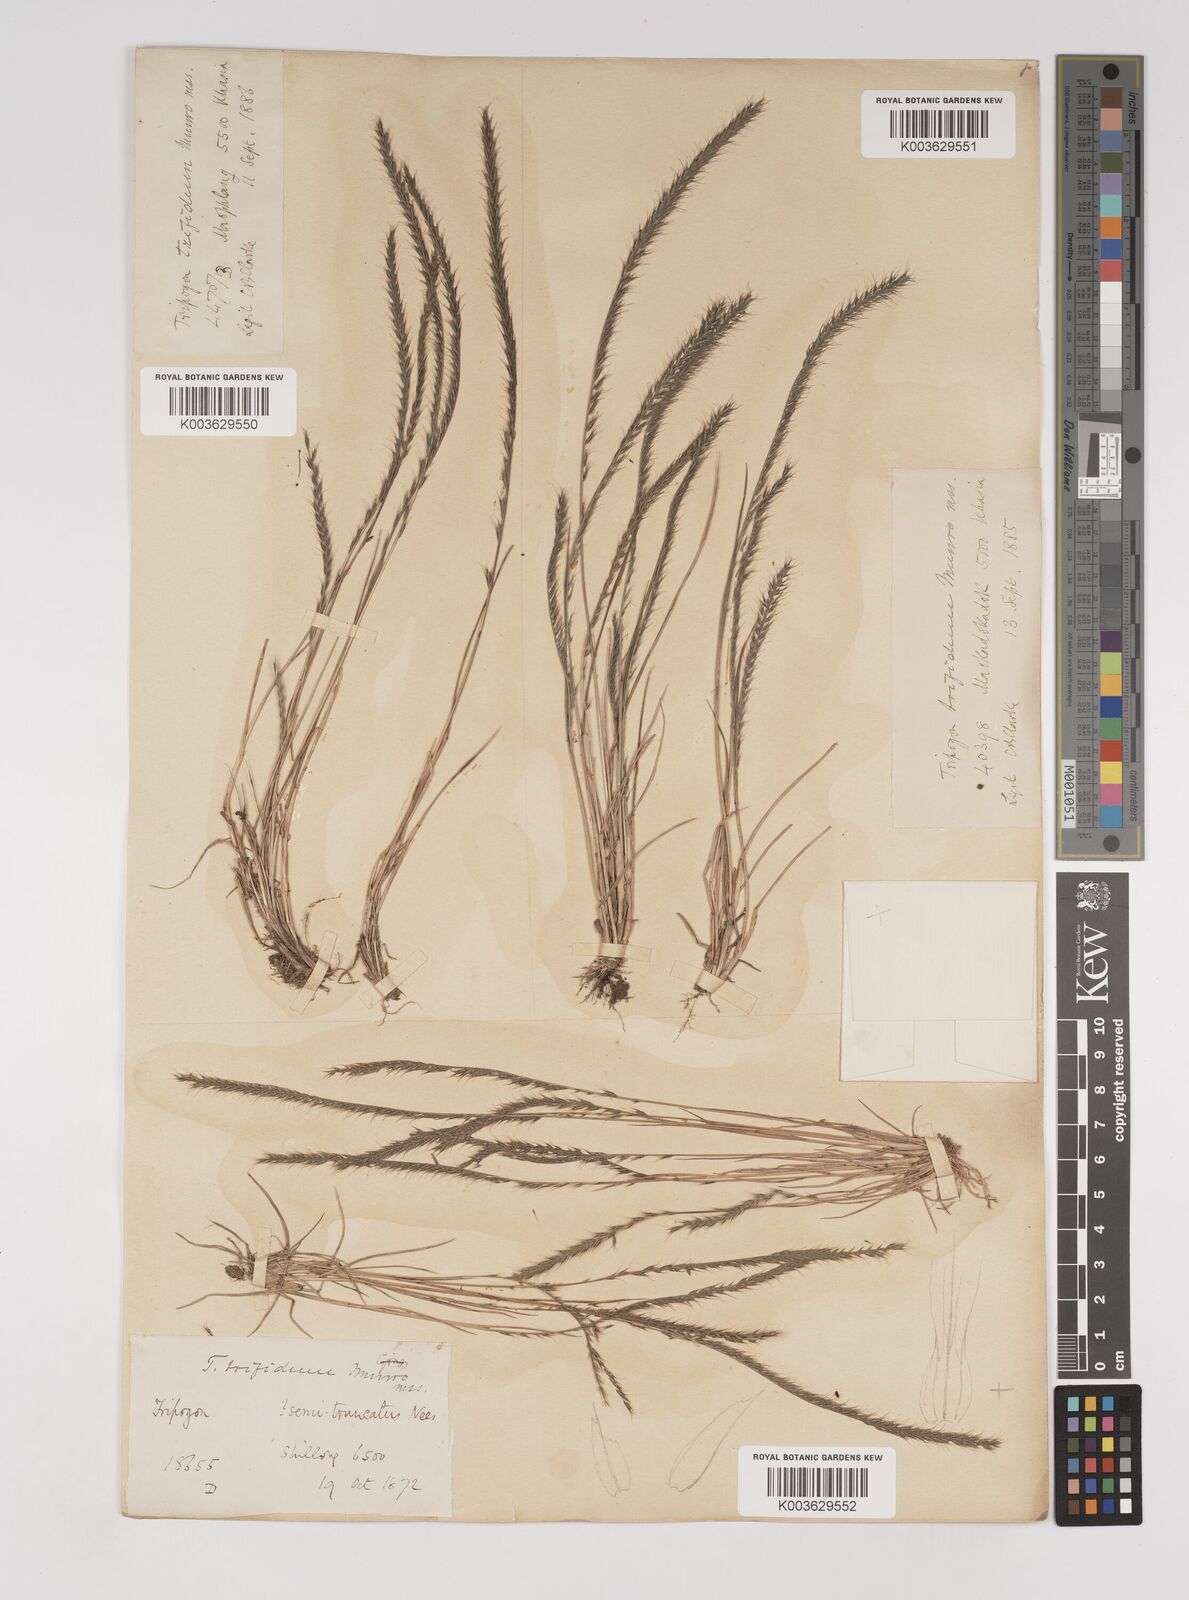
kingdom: Plantae
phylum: Tracheophyta
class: Liliopsida
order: Poales
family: Poaceae
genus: Tripogon
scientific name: Tripogon filiformis
